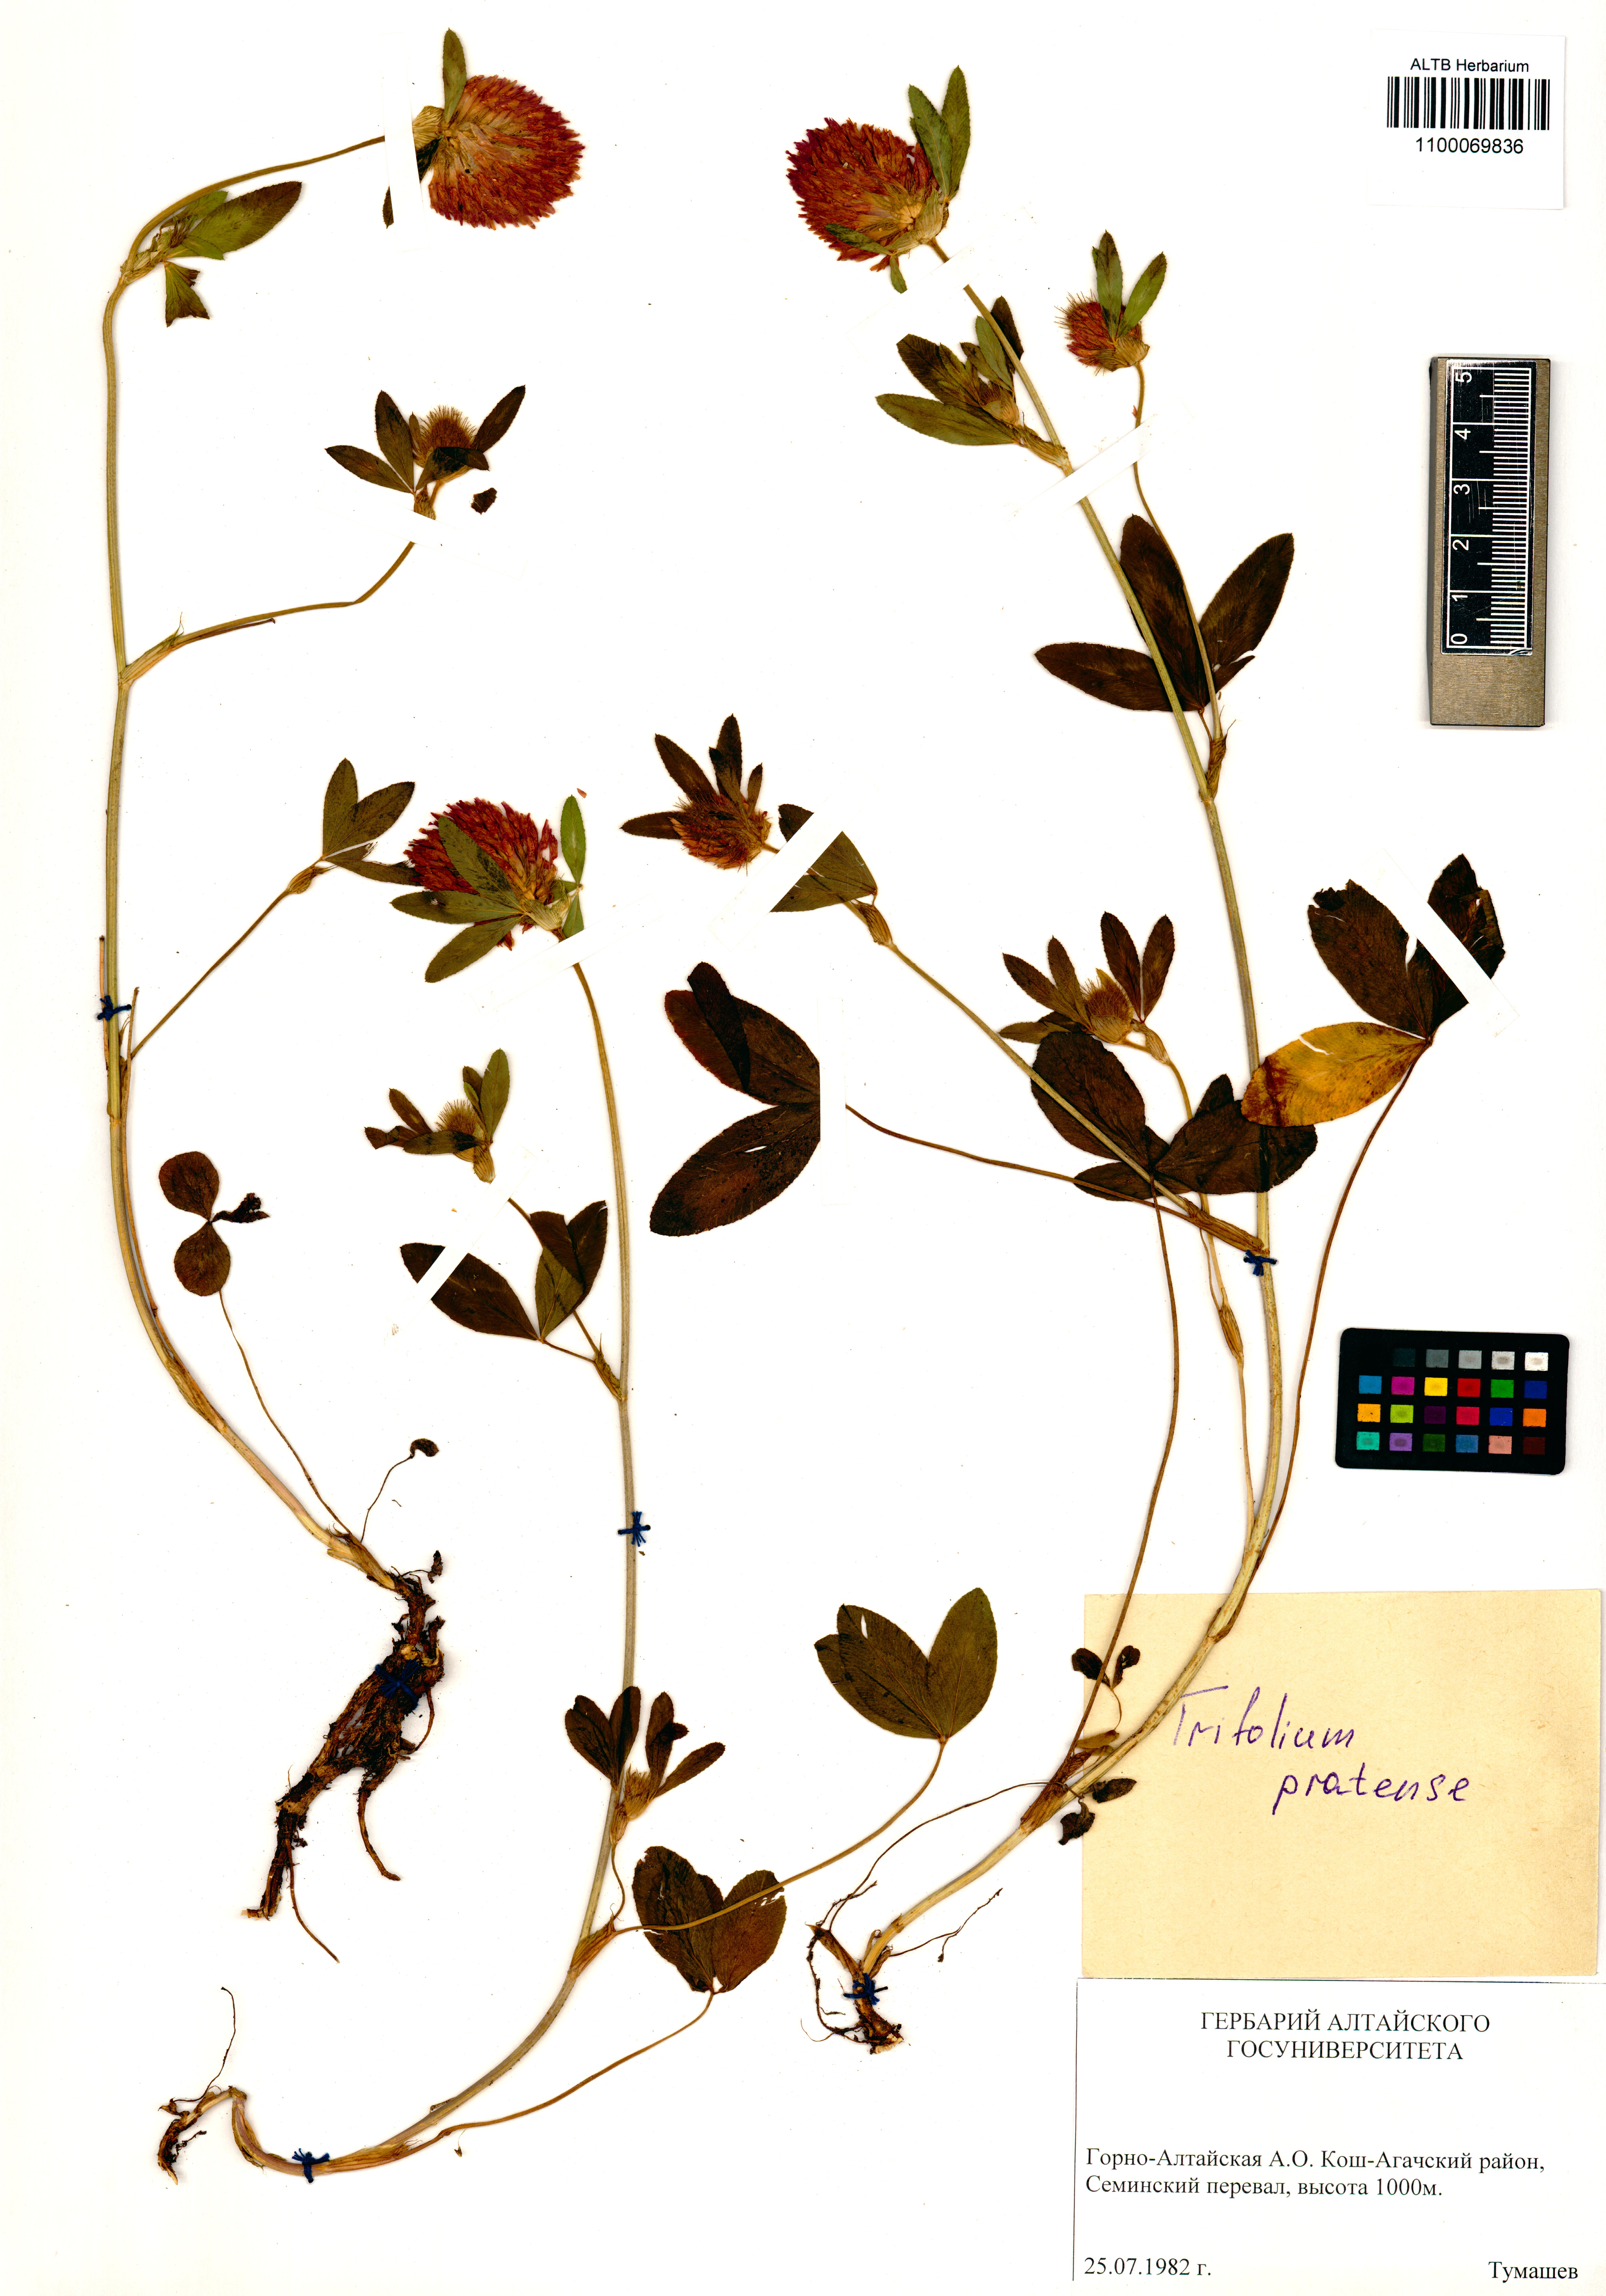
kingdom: Plantae
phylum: Tracheophyta
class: Magnoliopsida
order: Fabales
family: Fabaceae
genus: Trifolium
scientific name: Trifolium pratense
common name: Red clover
